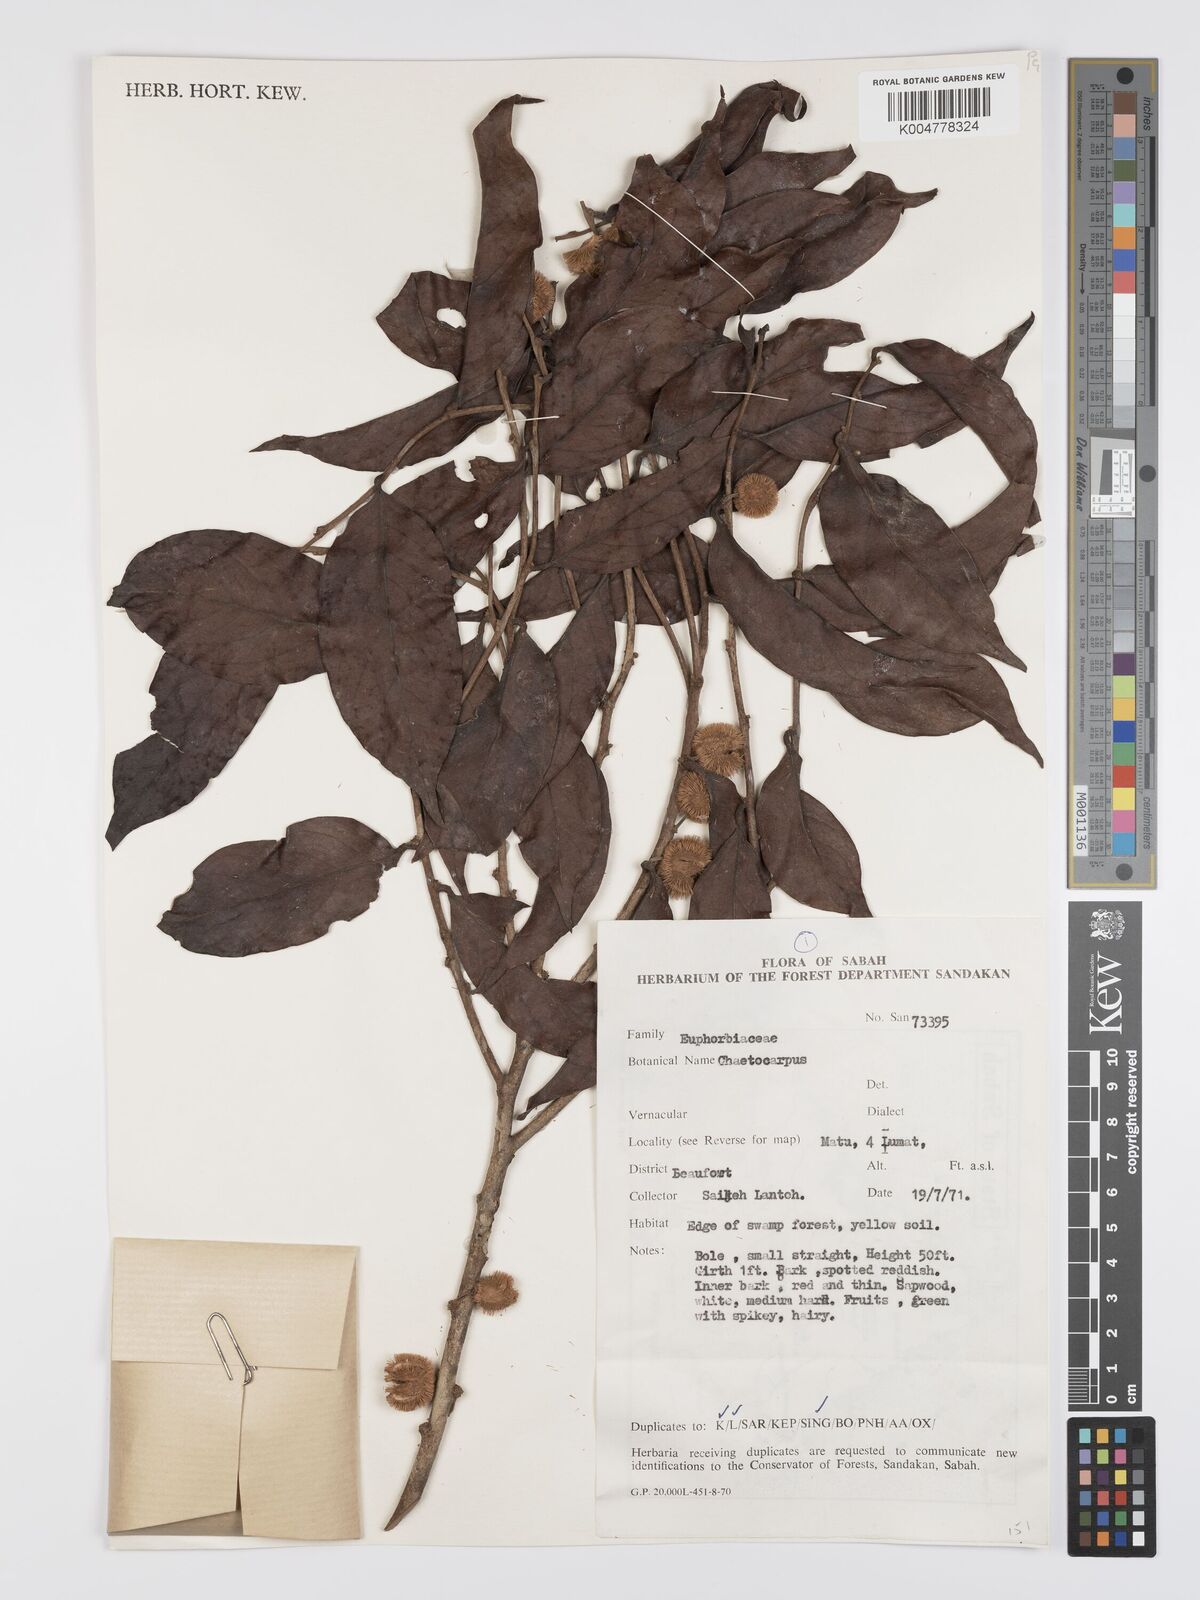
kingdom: Plantae
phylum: Tracheophyta
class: Magnoliopsida
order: Malpighiales
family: Peraceae
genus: Chaetocarpus
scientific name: Chaetocarpus castanocarpus
